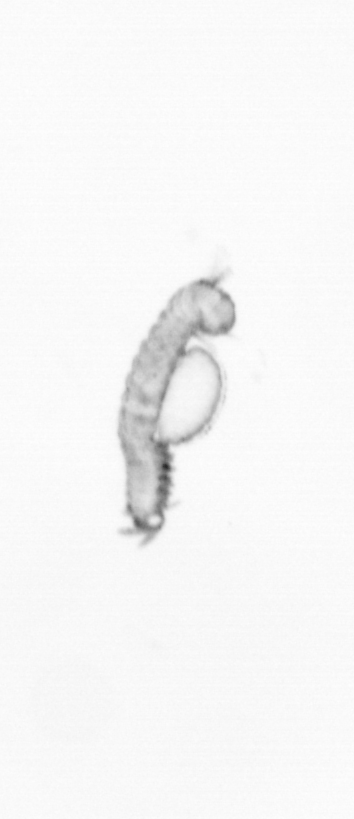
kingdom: Animalia
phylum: Annelida
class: Polychaeta
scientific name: Polychaeta
